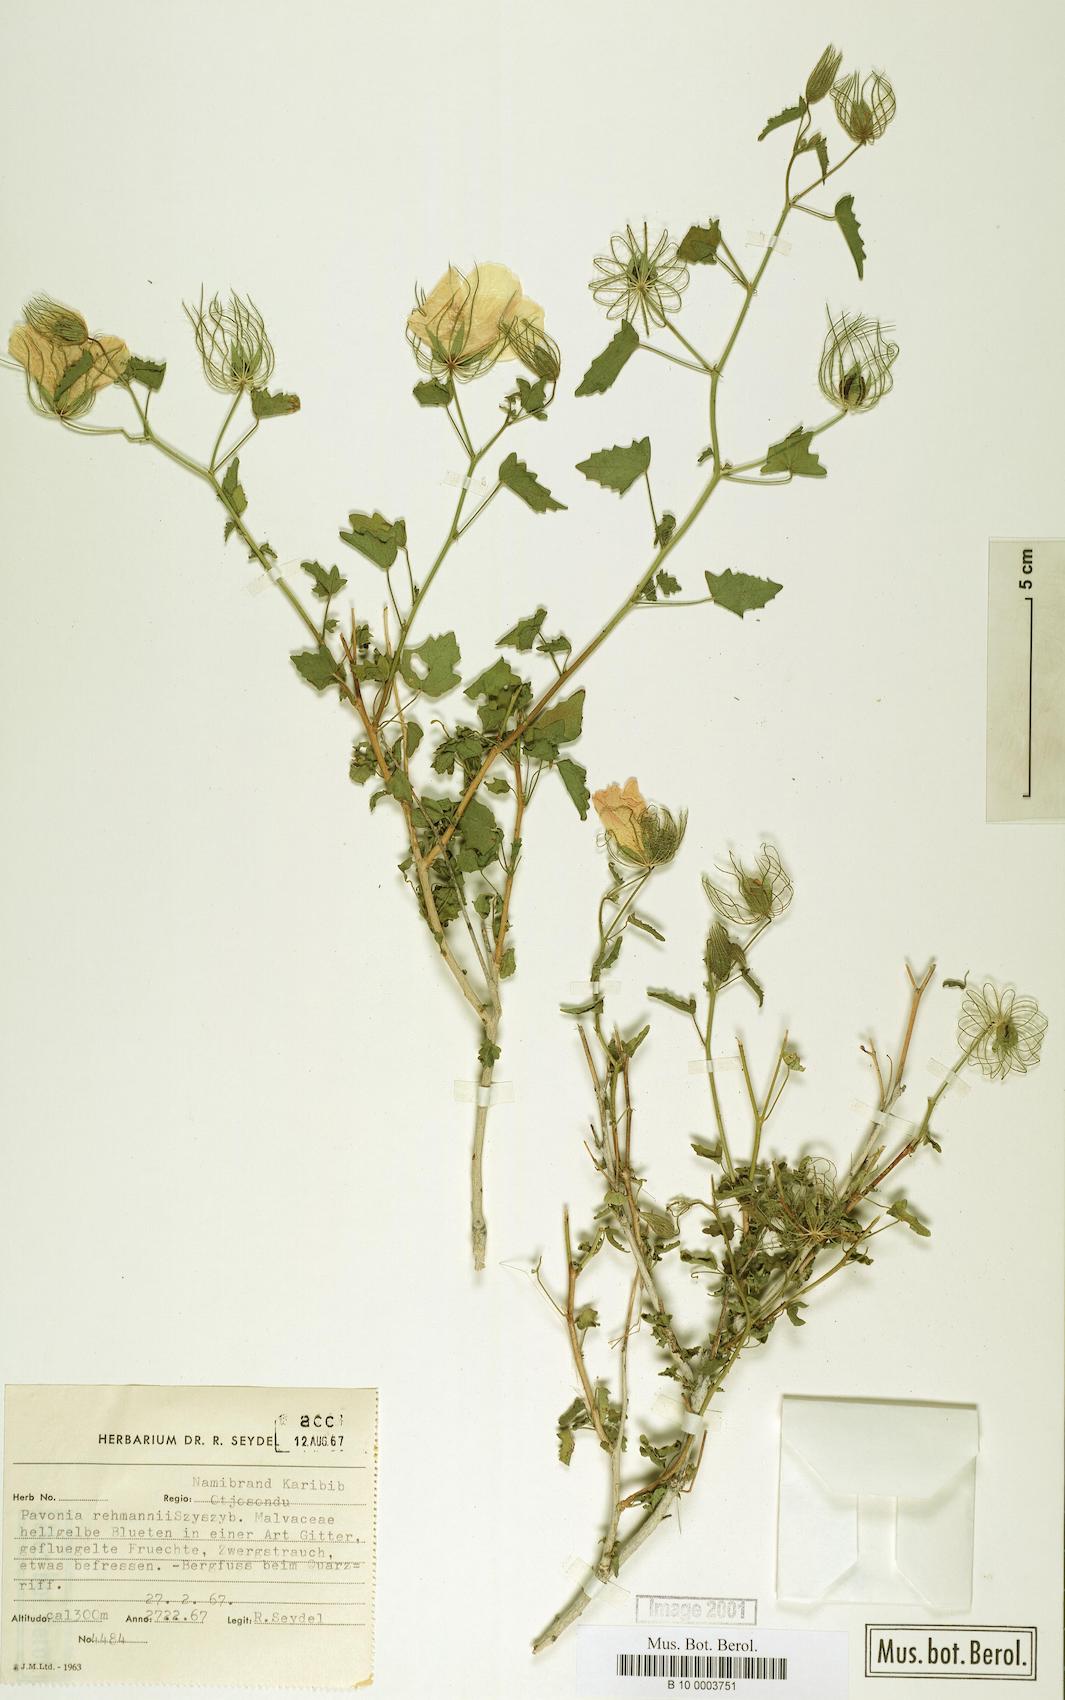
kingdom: Plantae
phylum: Tracheophyta
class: Magnoliopsida
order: Malvales
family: Malvaceae
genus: Pavonia
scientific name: Pavonia rehmannii
